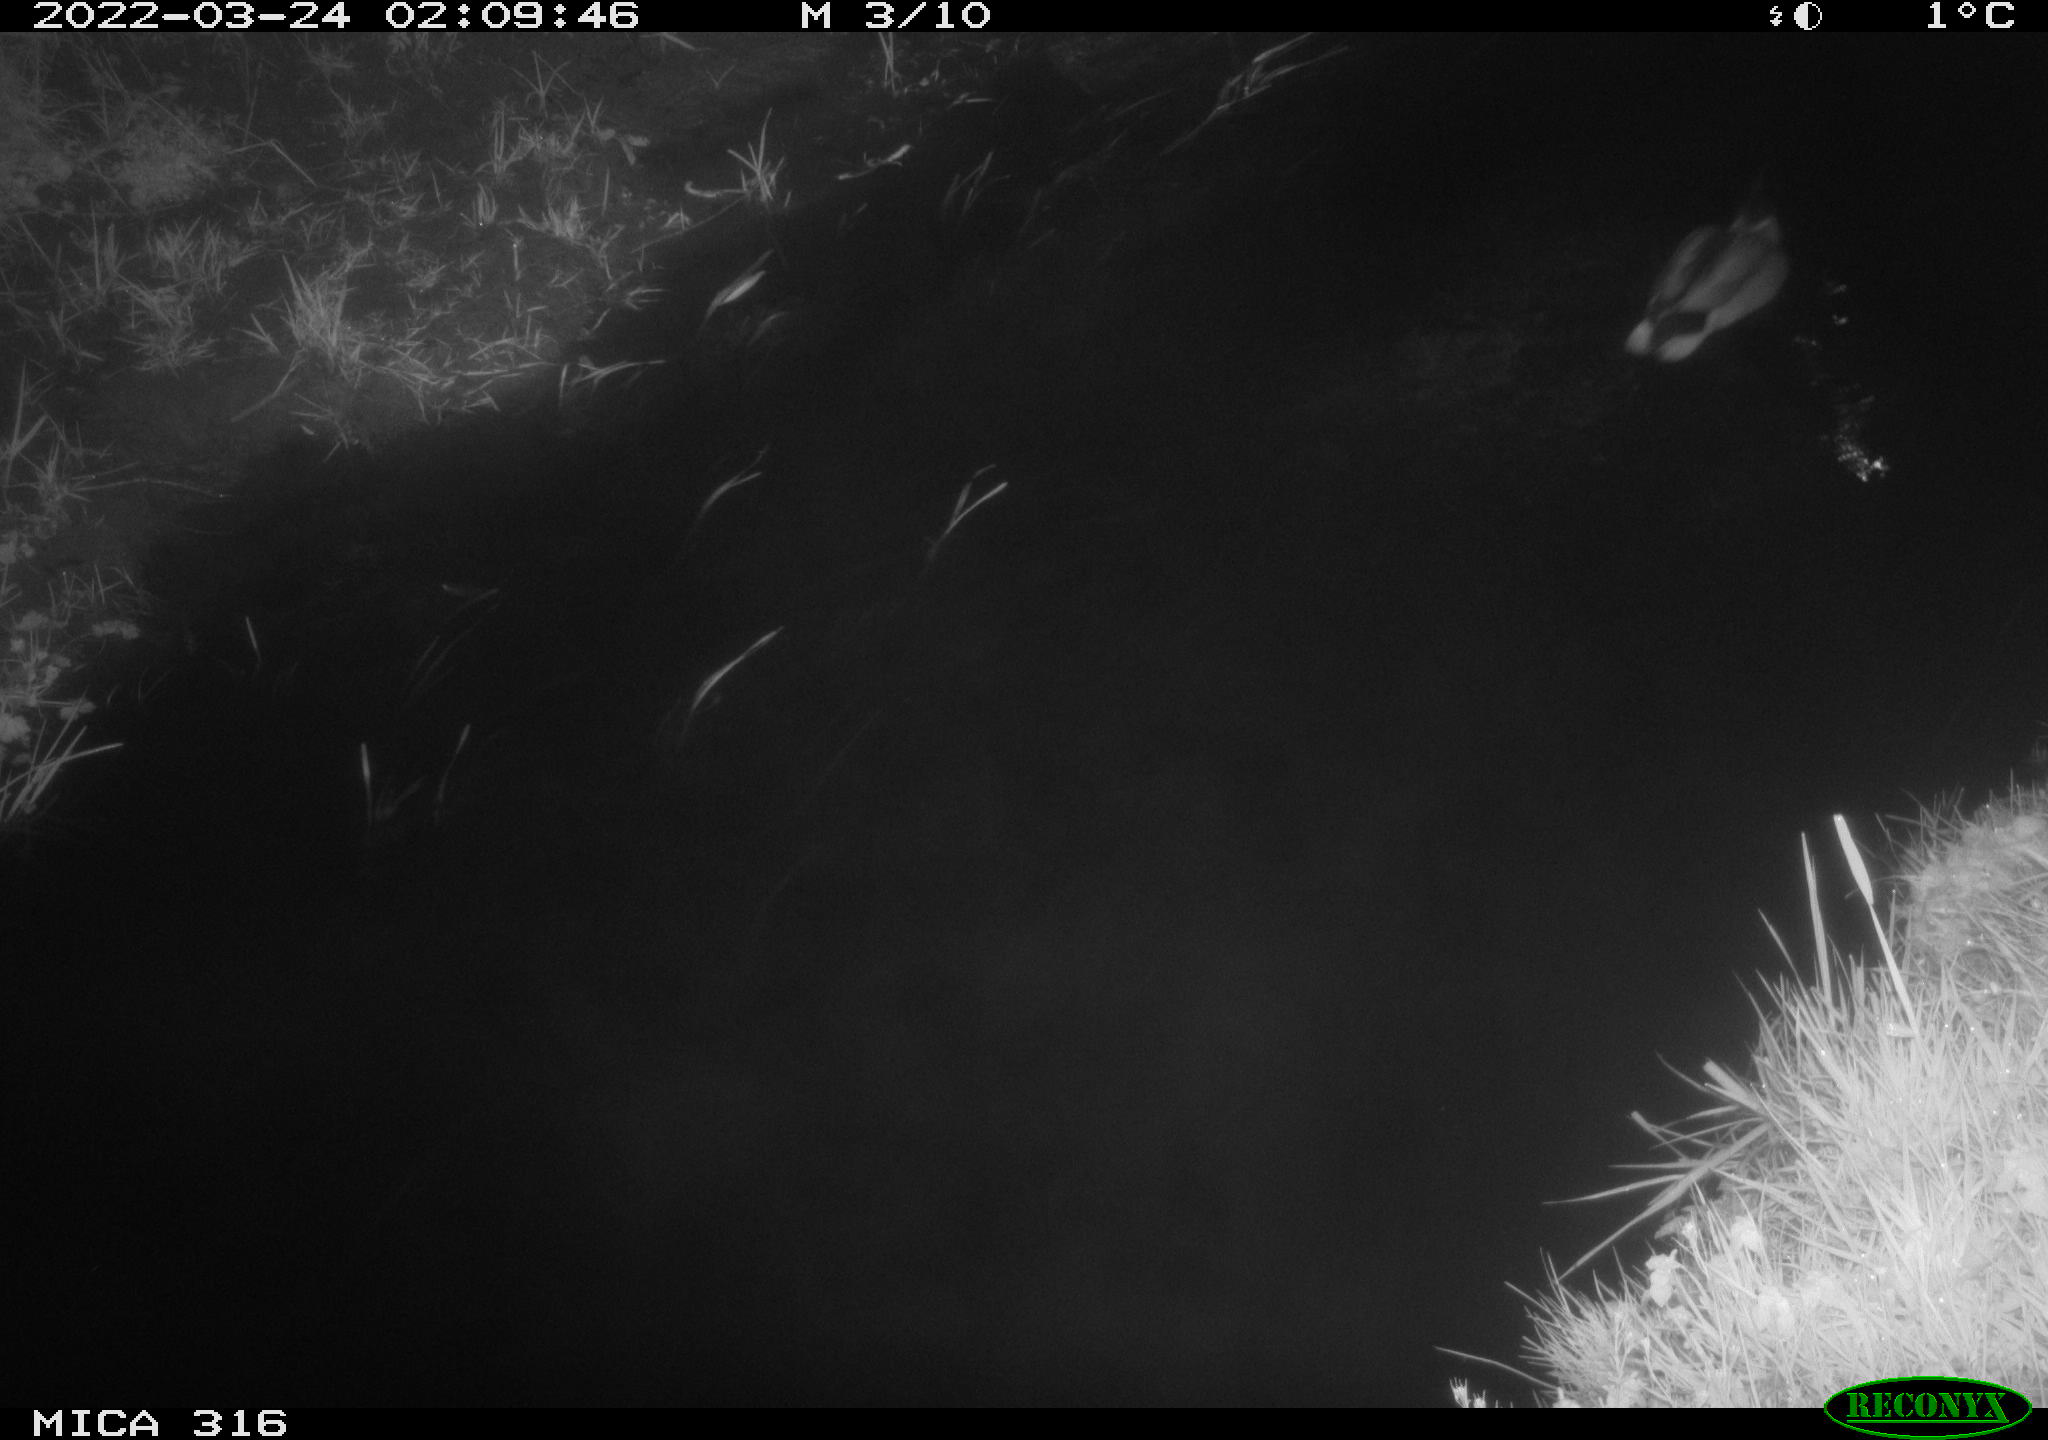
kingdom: Animalia
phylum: Chordata
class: Aves
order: Anseriformes
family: Anatidae
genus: Anas
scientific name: Anas platyrhynchos
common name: Mallard
